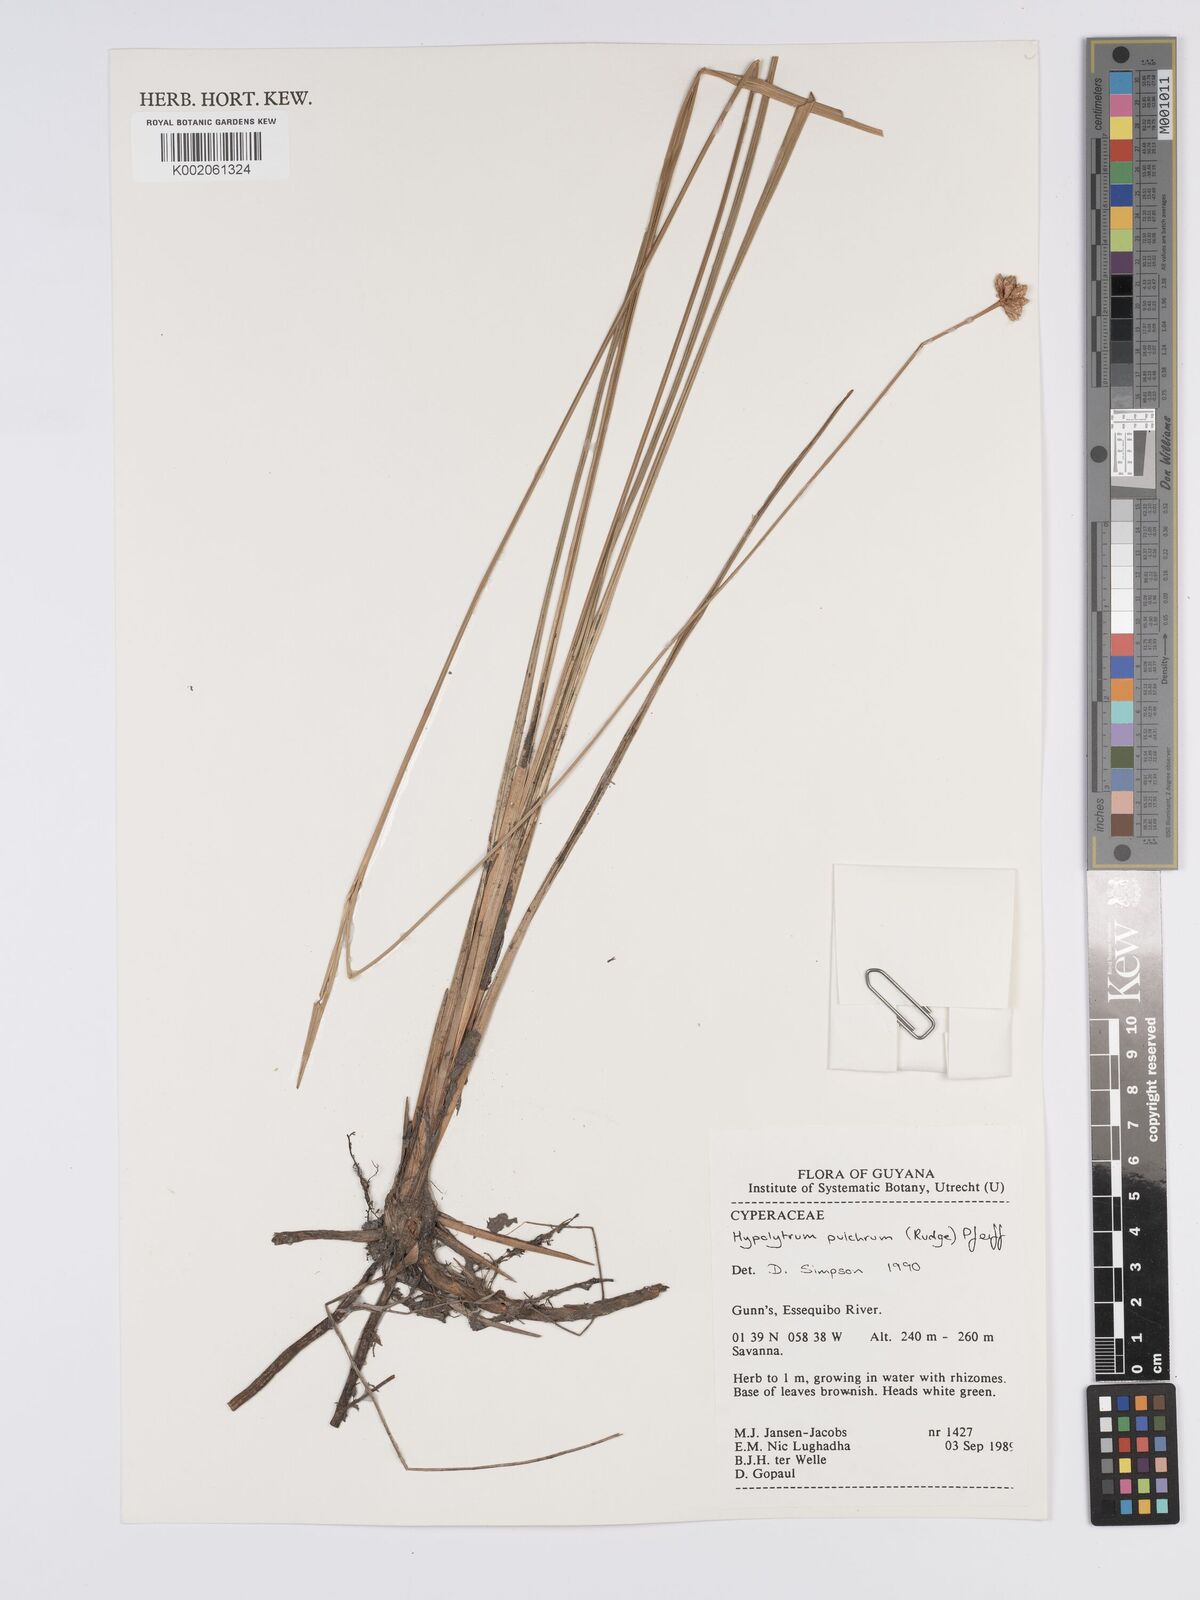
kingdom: Plantae
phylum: Tracheophyta
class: Liliopsida
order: Poales
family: Cyperaceae
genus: Hypolytrum
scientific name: Hypolytrum pulchrum
